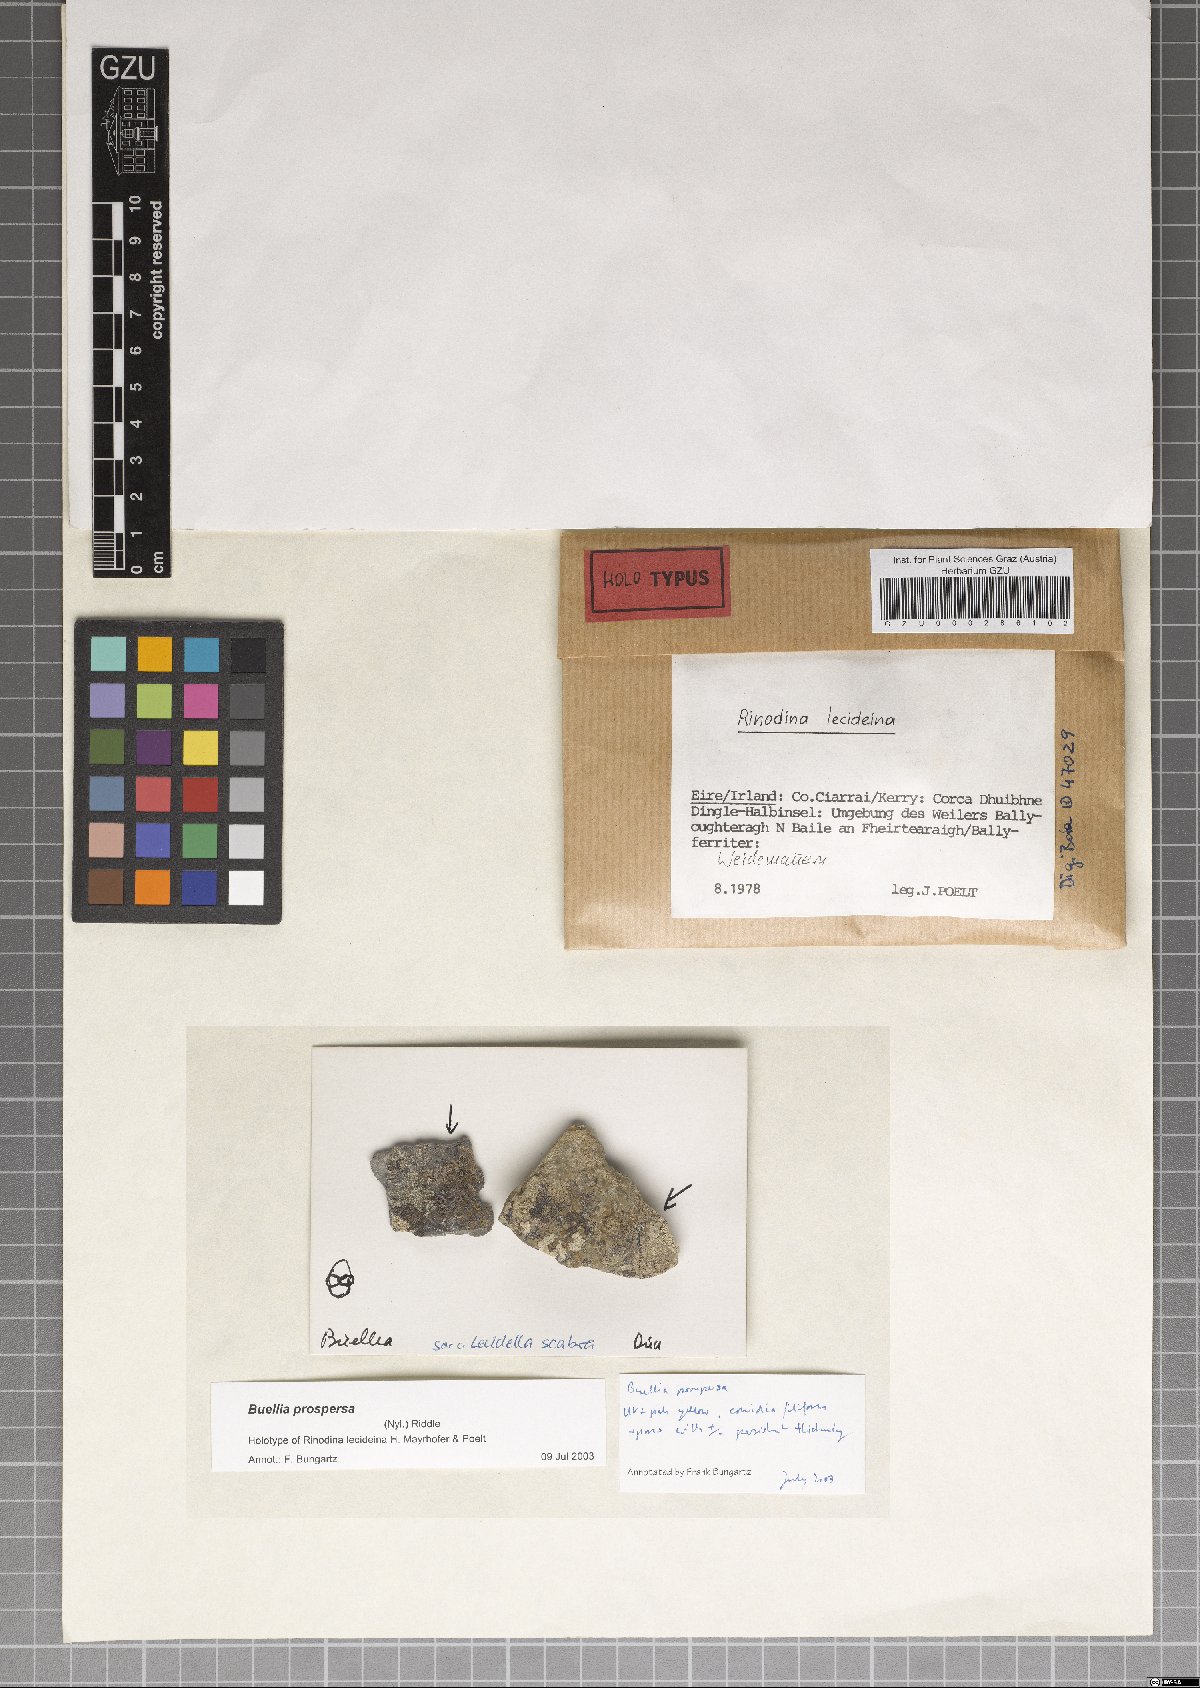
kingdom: Fungi
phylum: Ascomycota
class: Lecanoromycetes
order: Caliciales
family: Caliciaceae
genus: Amandinea
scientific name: Amandinea lecideina
